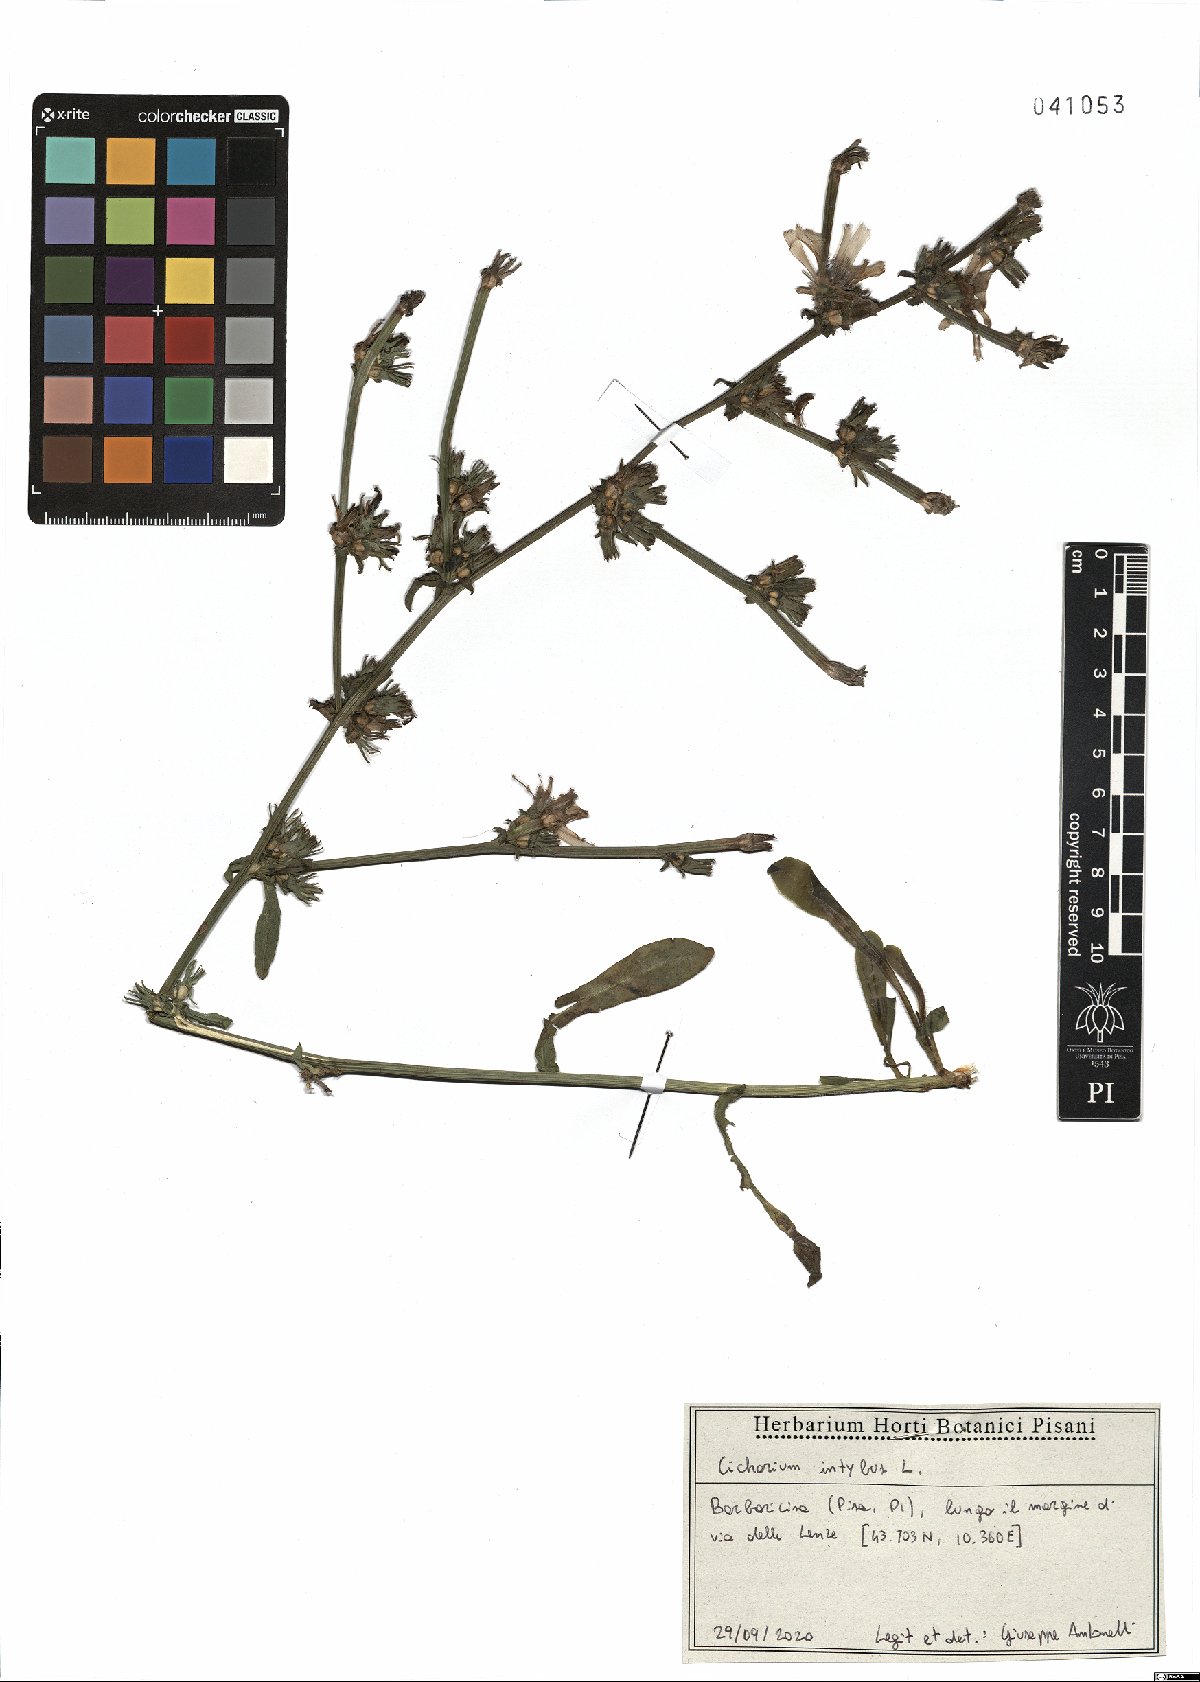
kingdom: Plantae
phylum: Tracheophyta
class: Magnoliopsida
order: Asterales
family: Asteraceae
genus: Cichorium
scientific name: Cichorium intybus
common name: Chicory
